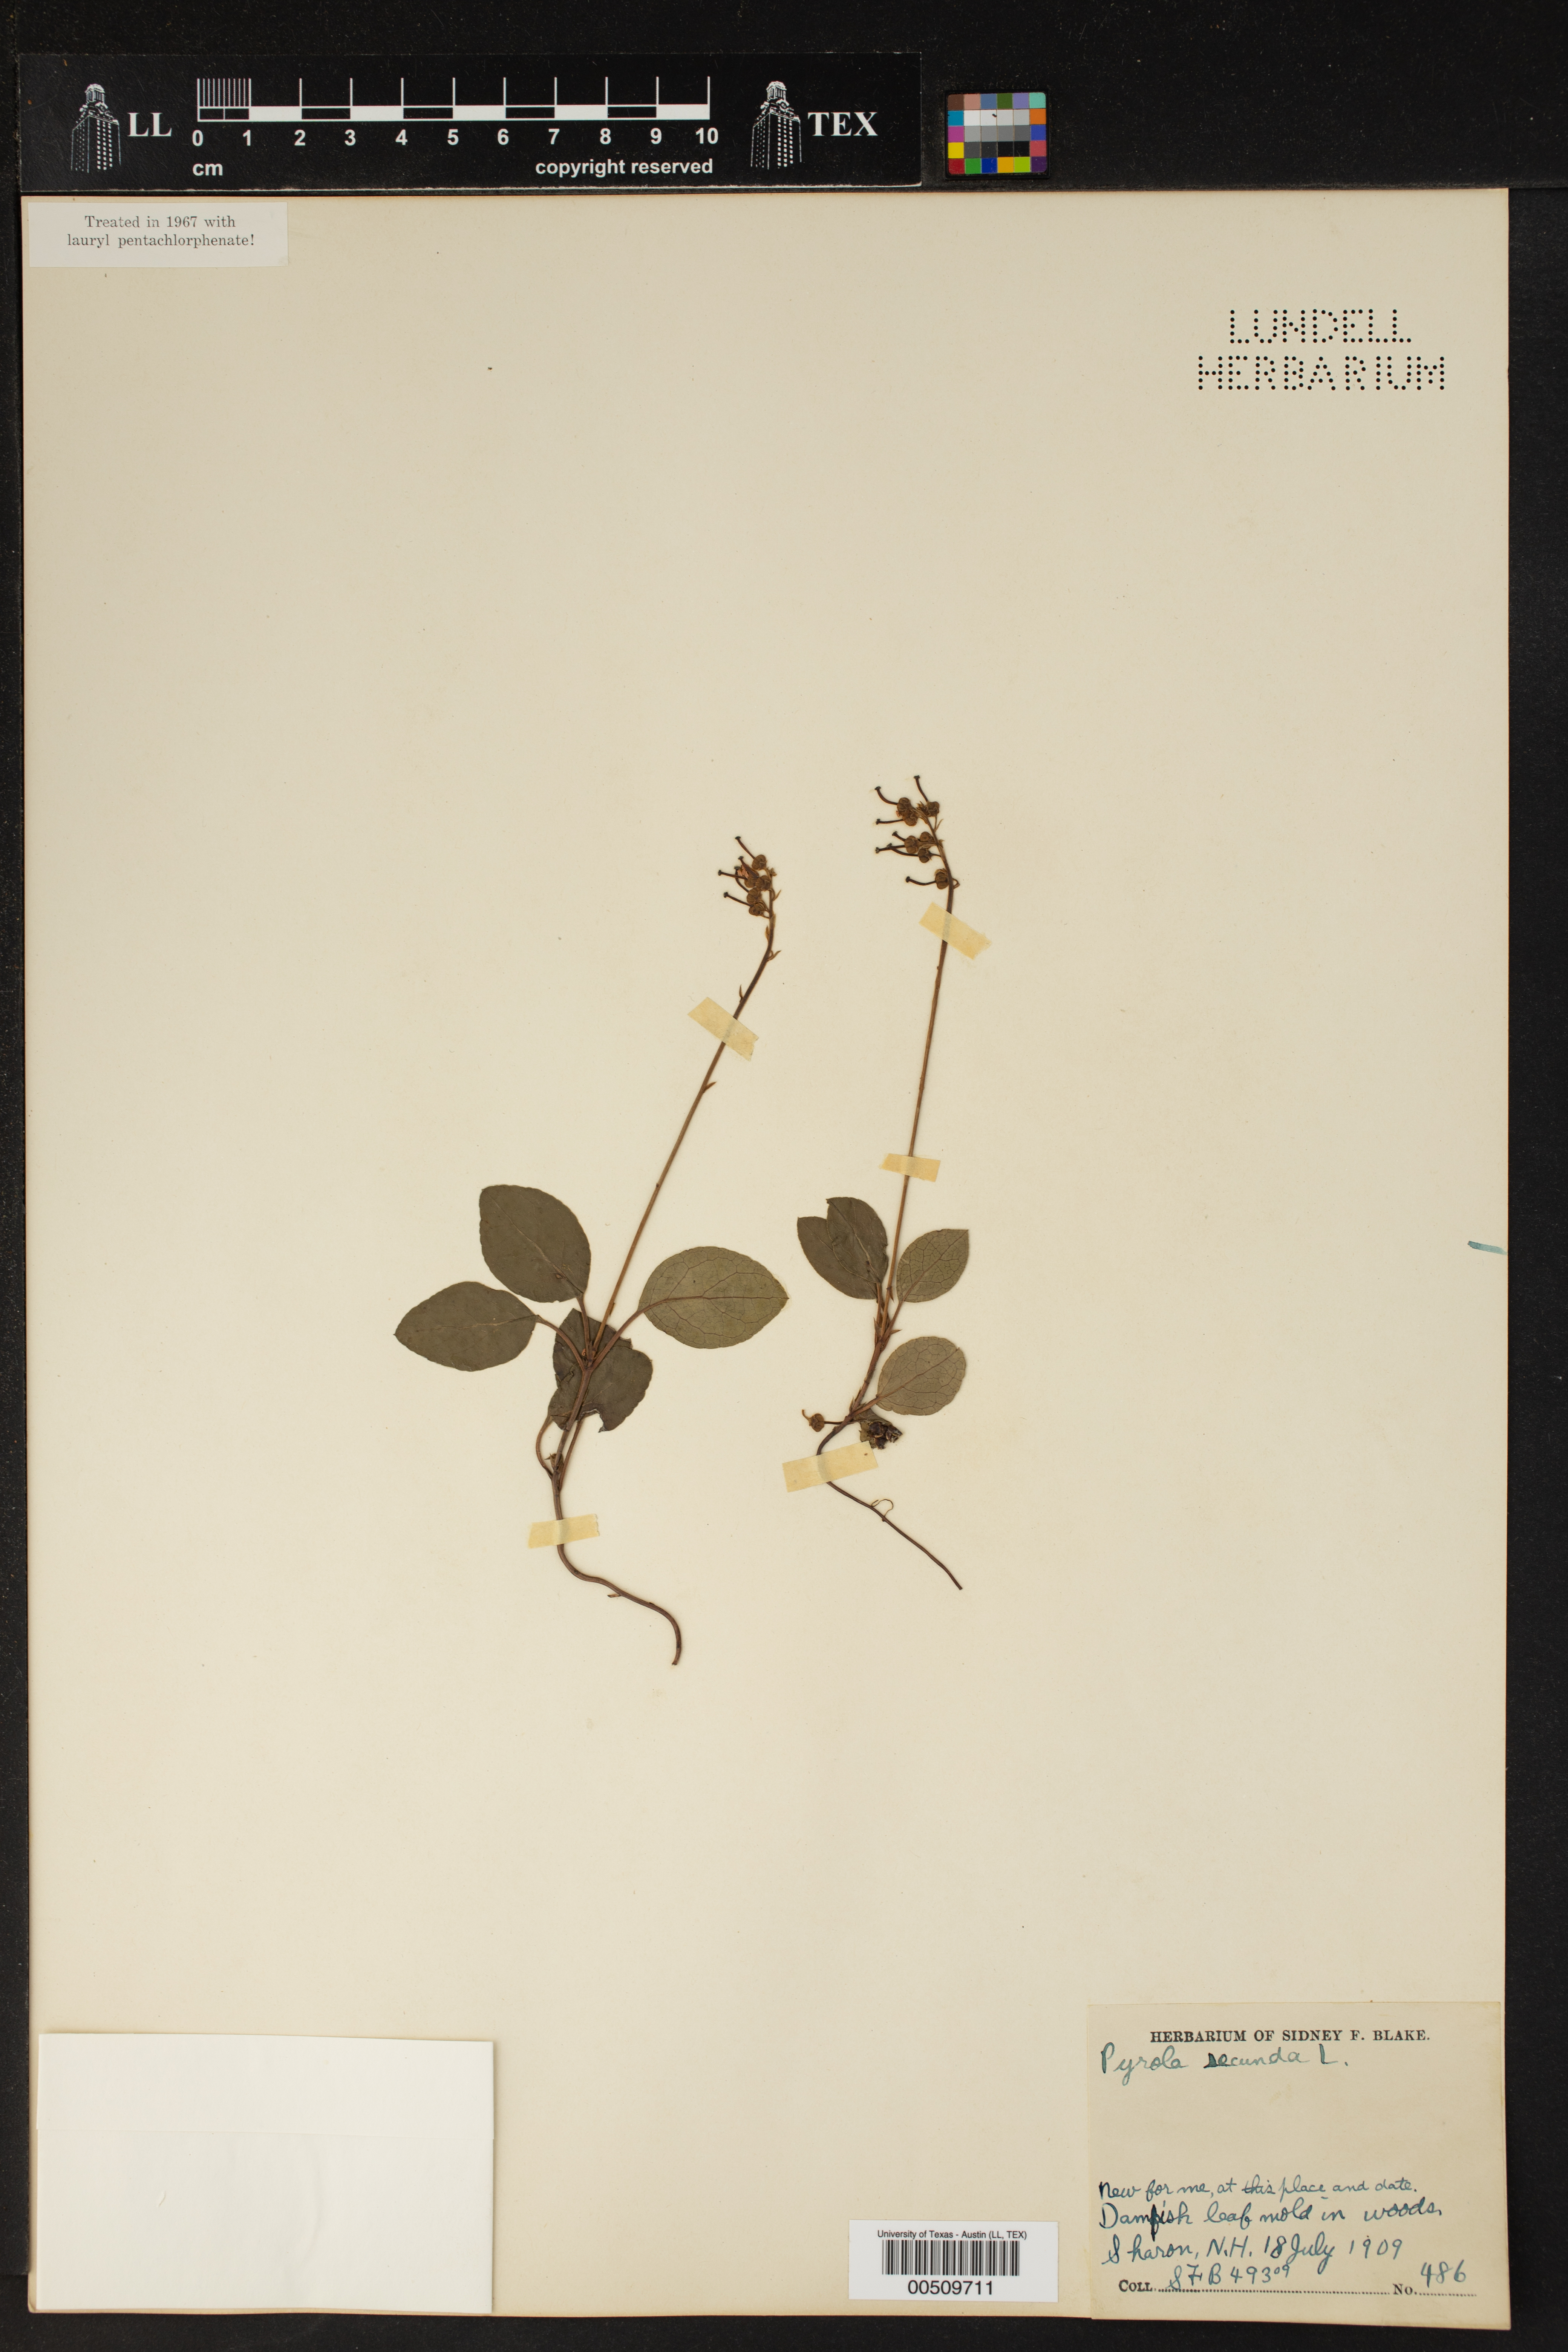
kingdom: Plantae
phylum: Tracheophyta
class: Magnoliopsida
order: Ericales
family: Ericaceae
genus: Orthilia
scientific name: Orthilia secunda
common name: One-sided orthilia
